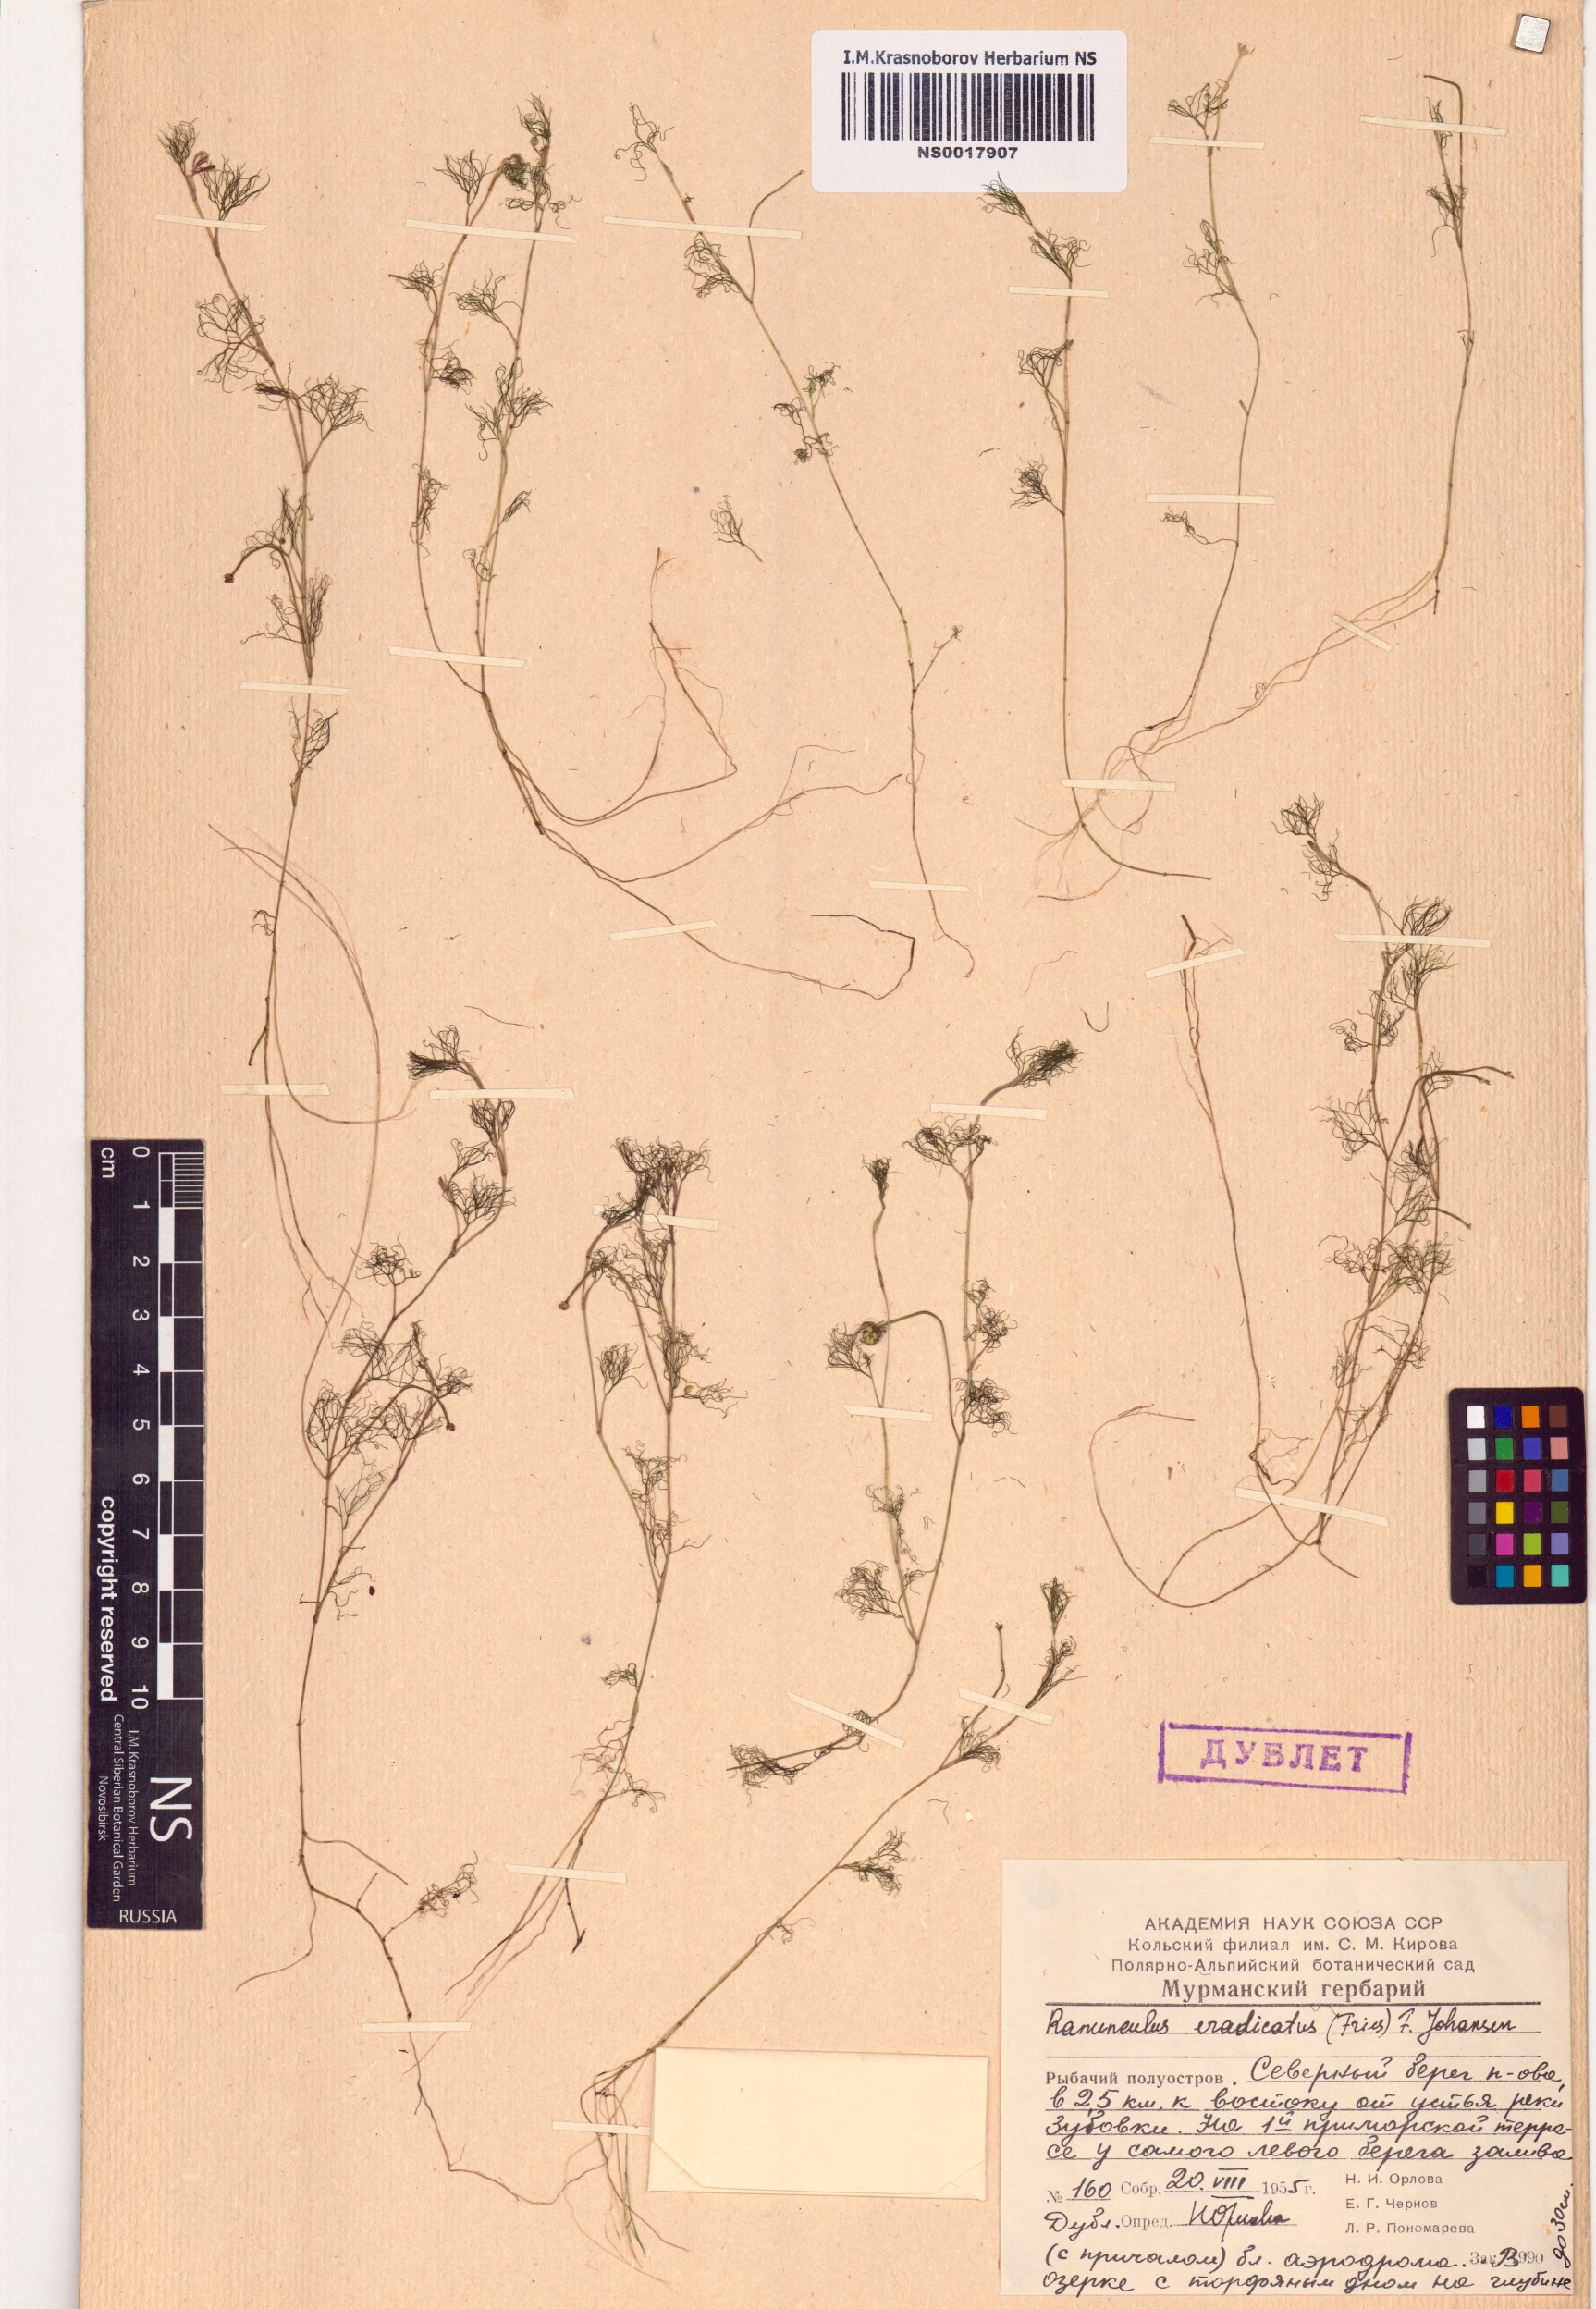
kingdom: Plantae
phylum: Tracheophyta
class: Magnoliopsida
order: Ranunculales
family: Ranunculaceae
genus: Ranunculus
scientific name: Ranunculus confervoides
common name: Delicate buttercup
